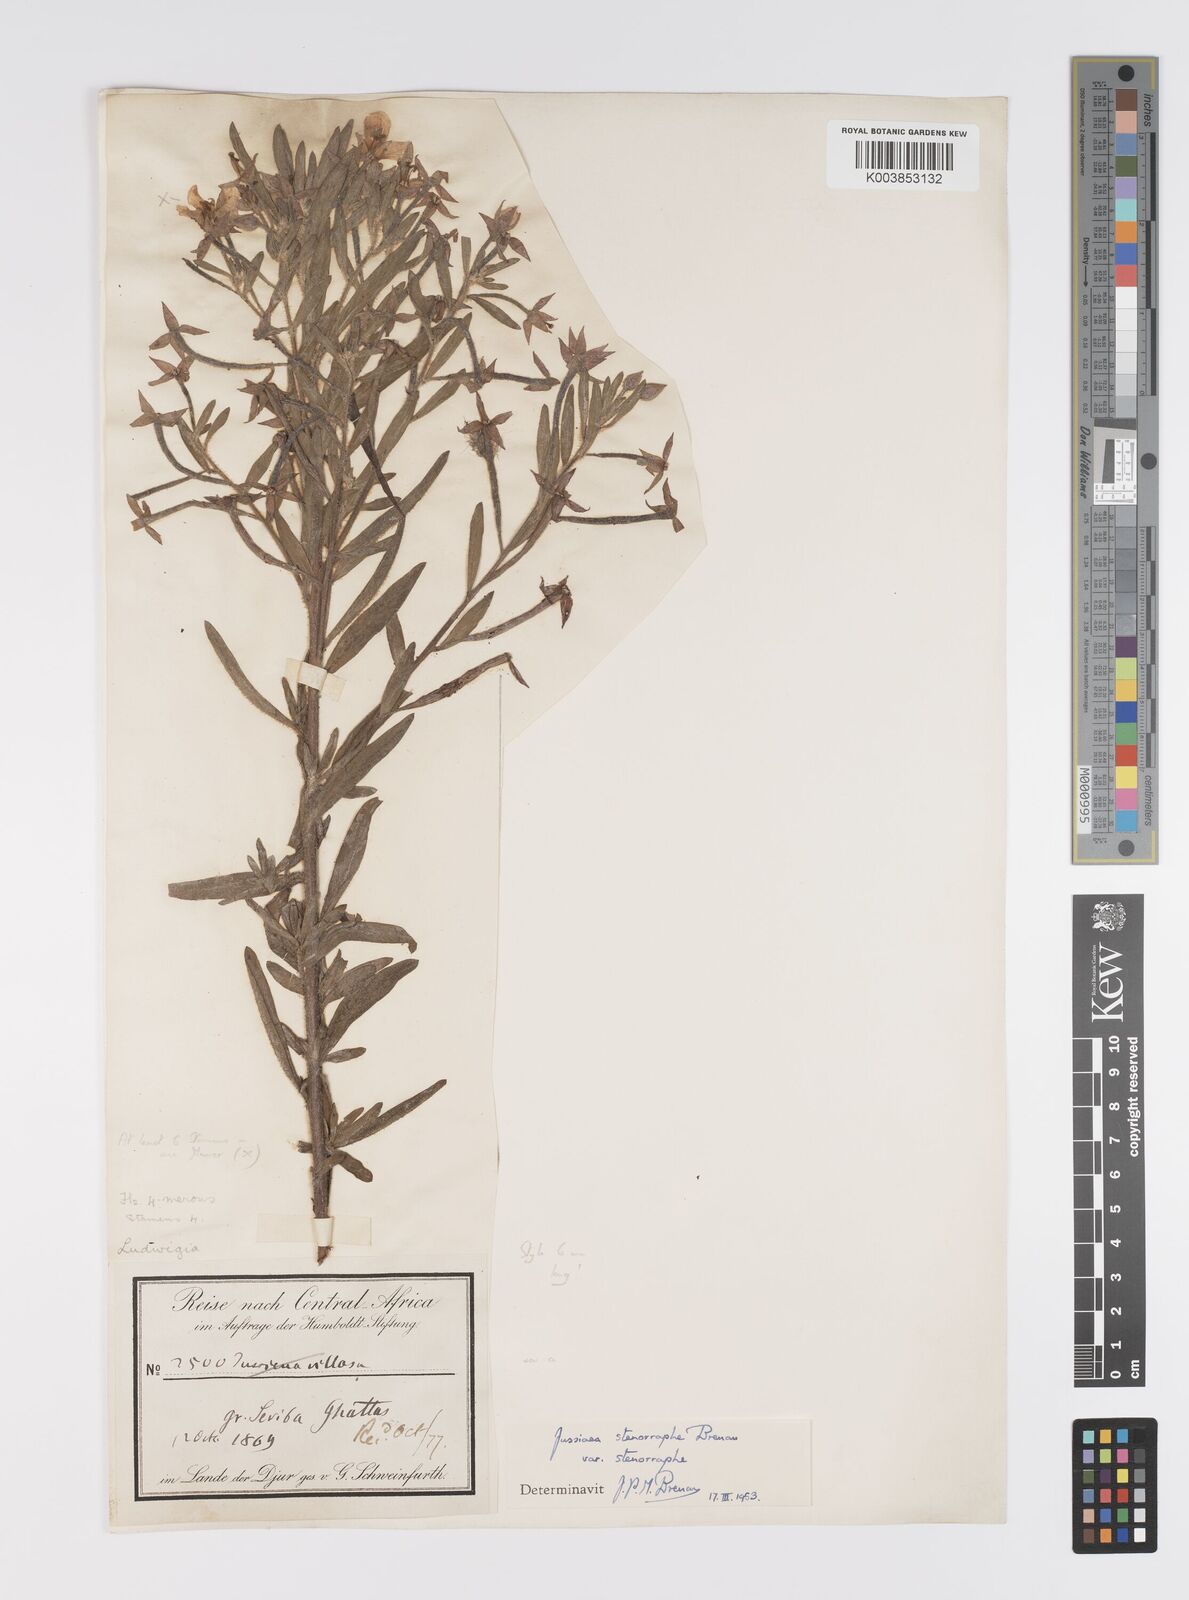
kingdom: Plantae
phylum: Tracheophyta
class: Magnoliopsida
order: Myrtales
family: Onagraceae
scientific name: Onagraceae
